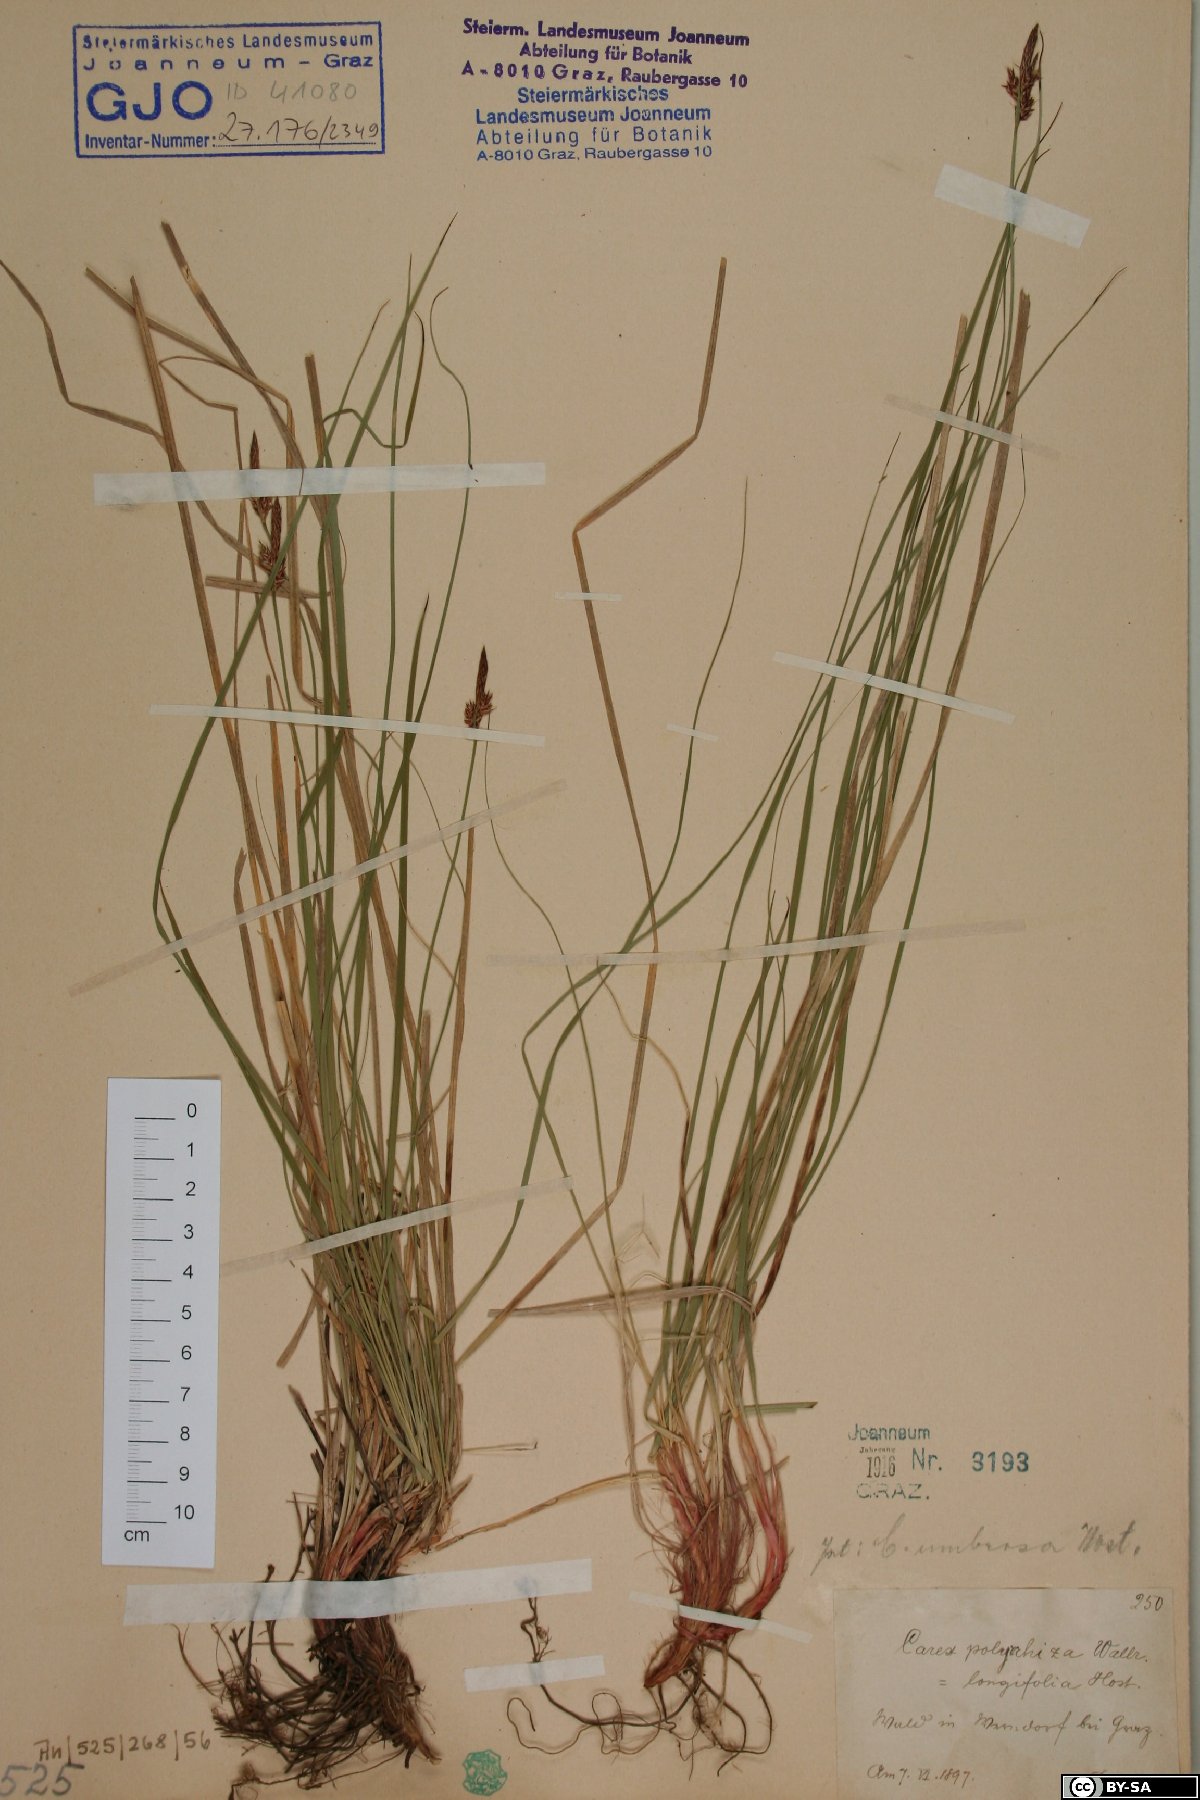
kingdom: Plantae
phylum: Tracheophyta
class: Liliopsida
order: Poales
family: Cyperaceae
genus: Carex
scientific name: Carex umbrosa
